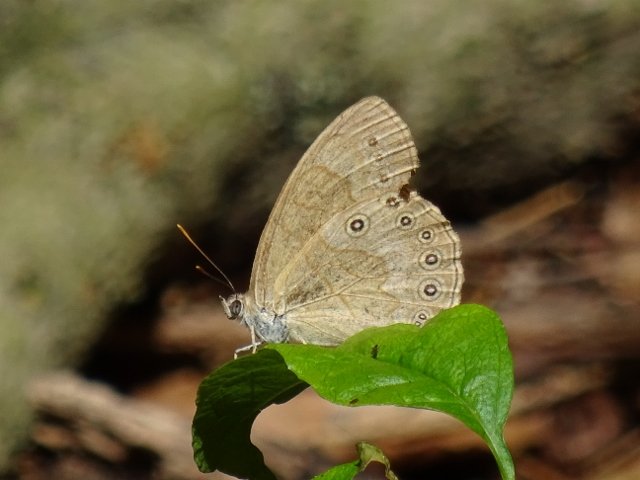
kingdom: Animalia
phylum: Arthropoda
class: Insecta
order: Lepidoptera
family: Nymphalidae
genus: Lethe
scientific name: Lethe eurydice
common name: Eyed Brown
